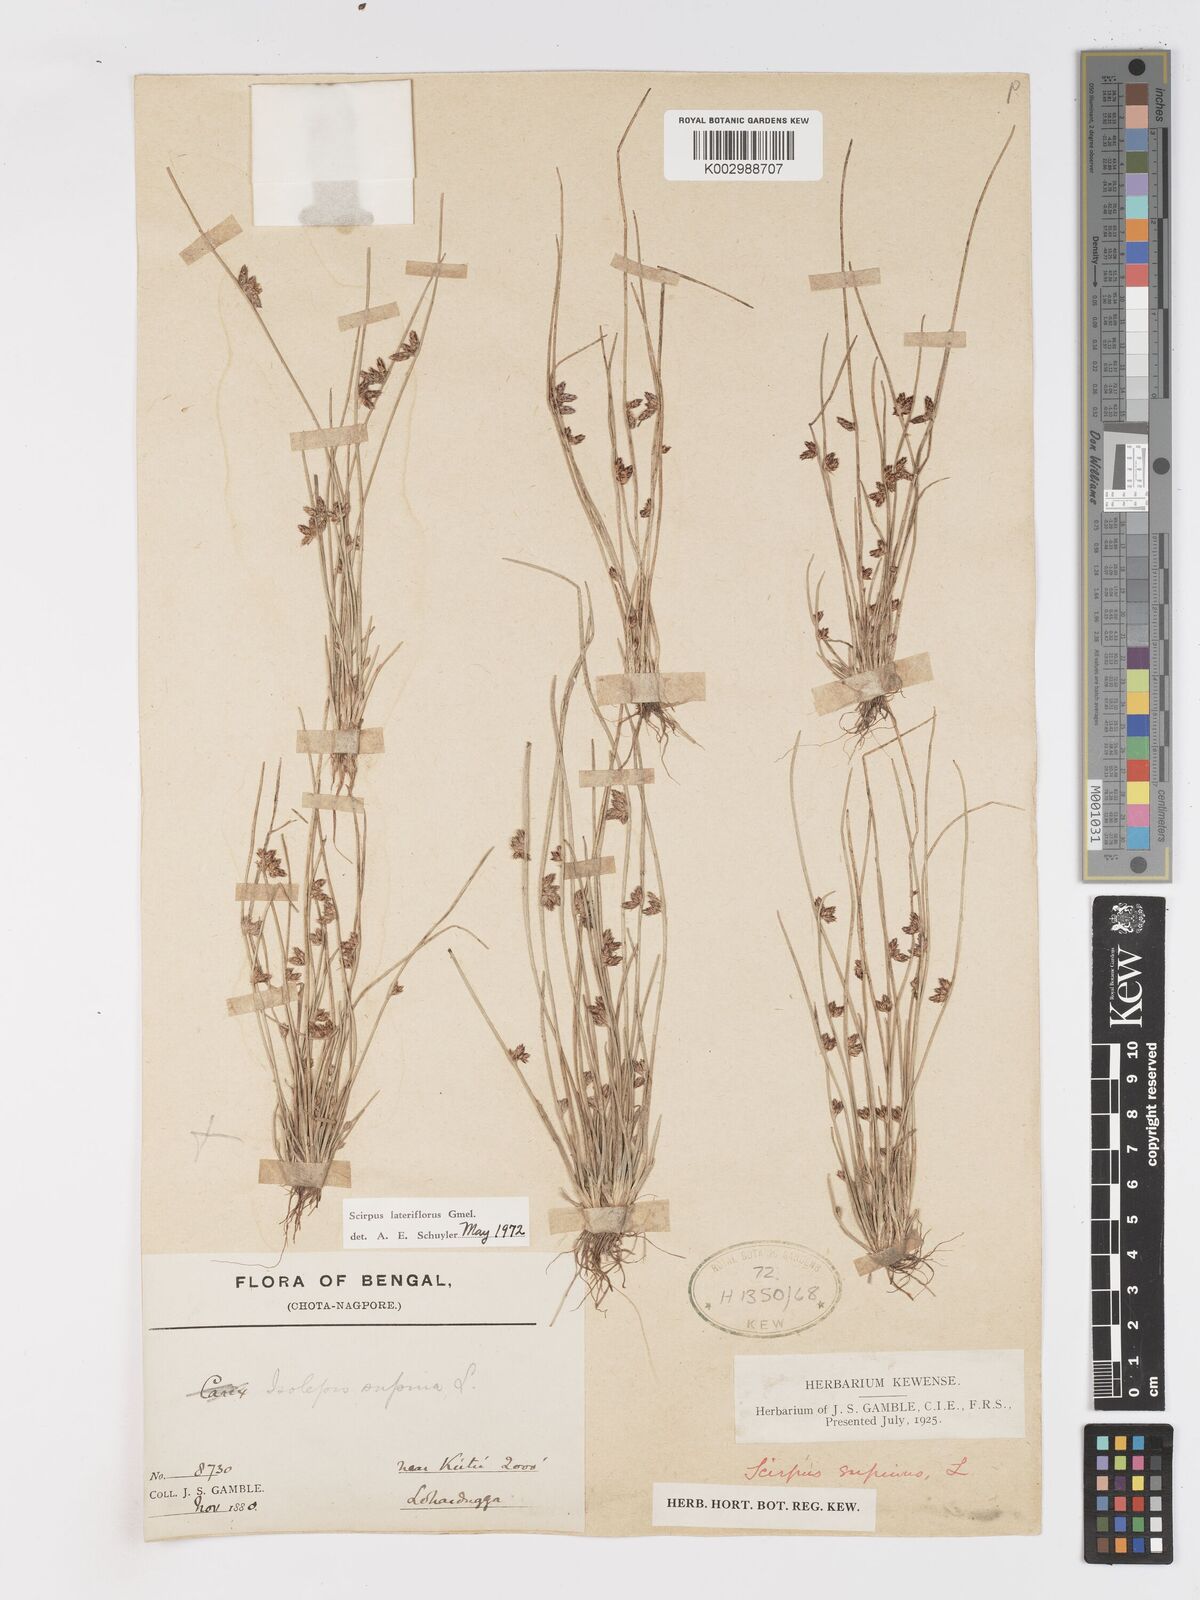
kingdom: Plantae
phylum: Tracheophyta
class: Liliopsida
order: Poales
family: Cyperaceae
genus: Schoenoplectiella
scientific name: Schoenoplectiella lateriflora
